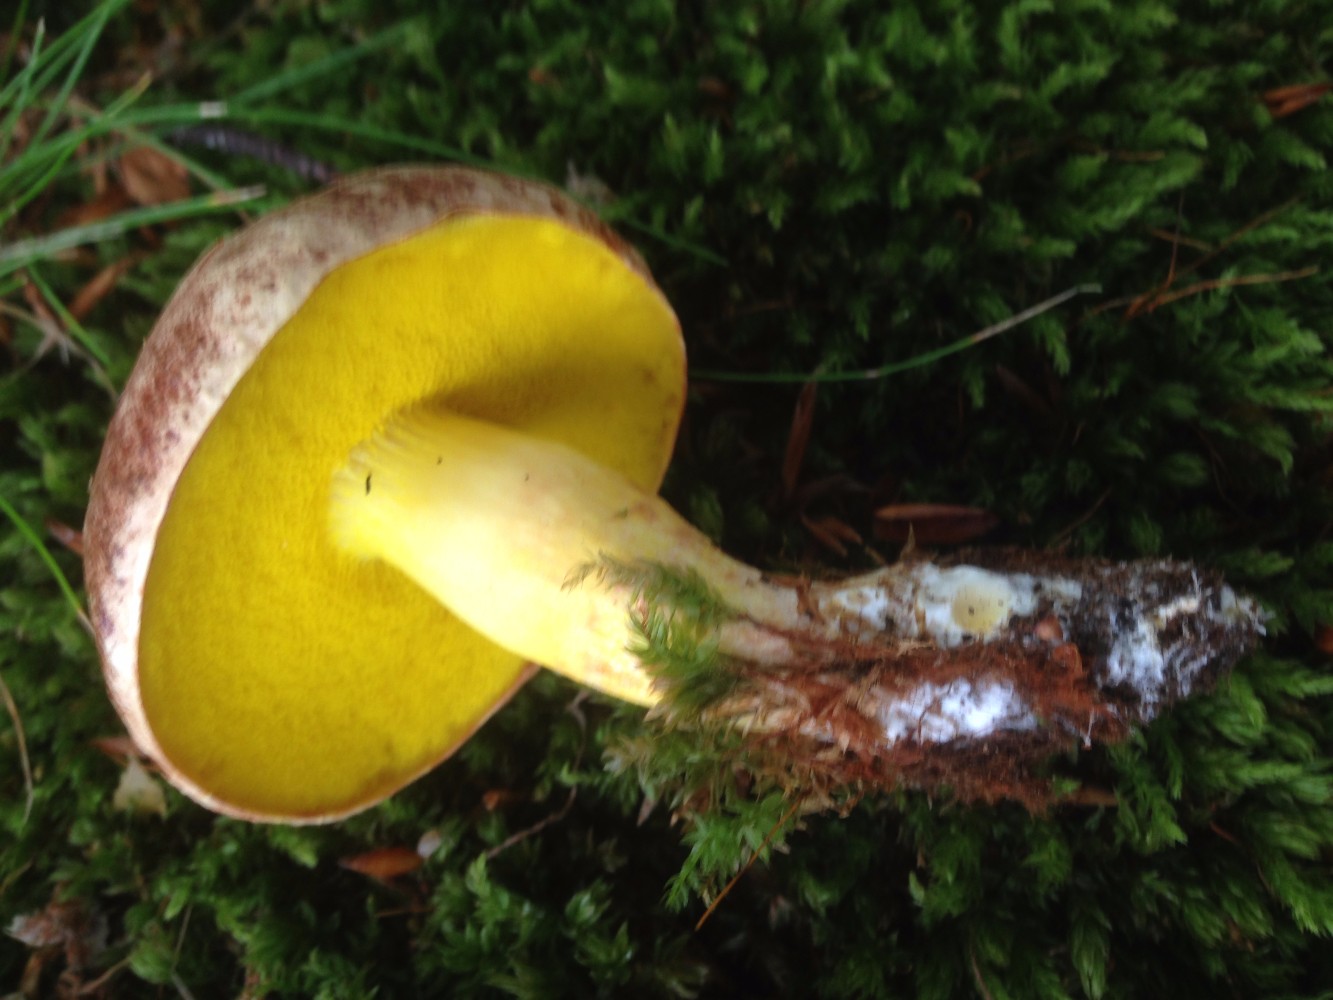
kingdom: Fungi
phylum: Basidiomycota
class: Agaricomycetes
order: Boletales
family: Boletaceae
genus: Aureoboletus
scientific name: Aureoboletus gentilis
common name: guldrørhat
